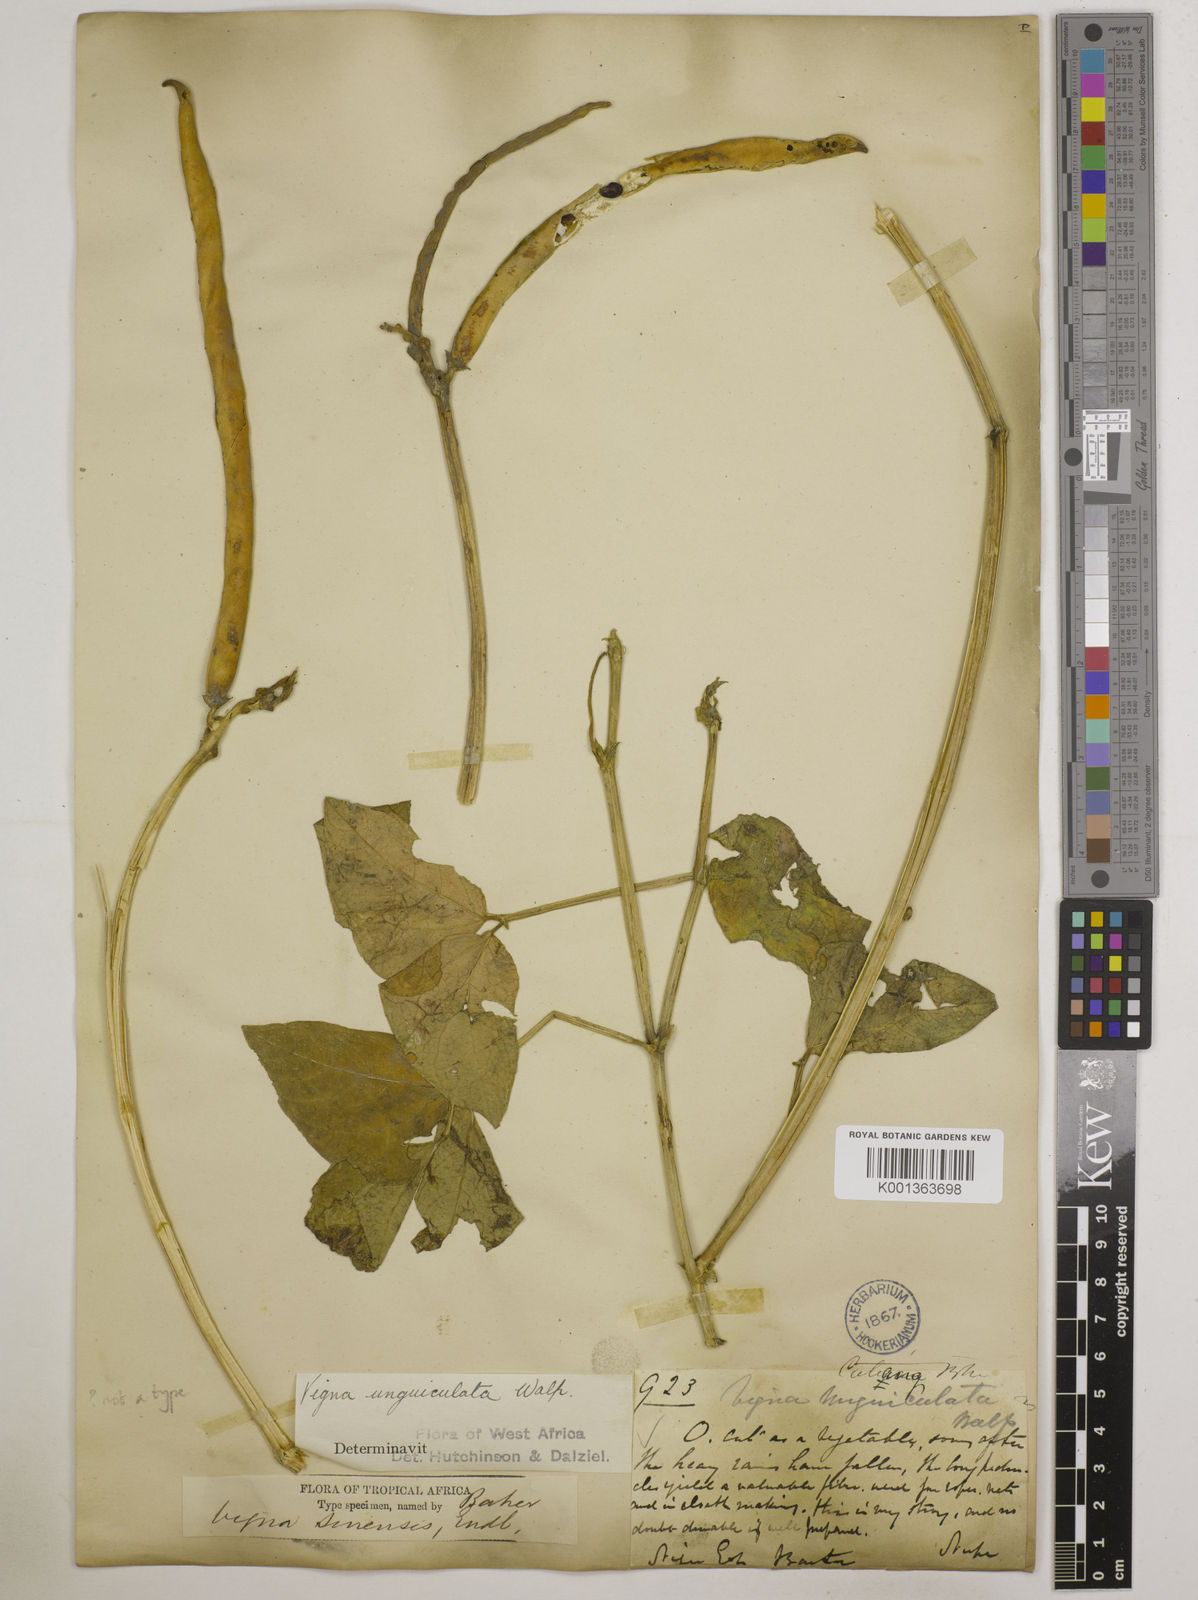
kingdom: Plantae
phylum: Tracheophyta
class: Magnoliopsida
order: Fabales
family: Fabaceae
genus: Vigna
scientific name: Vigna unguiculata
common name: Cowpea
